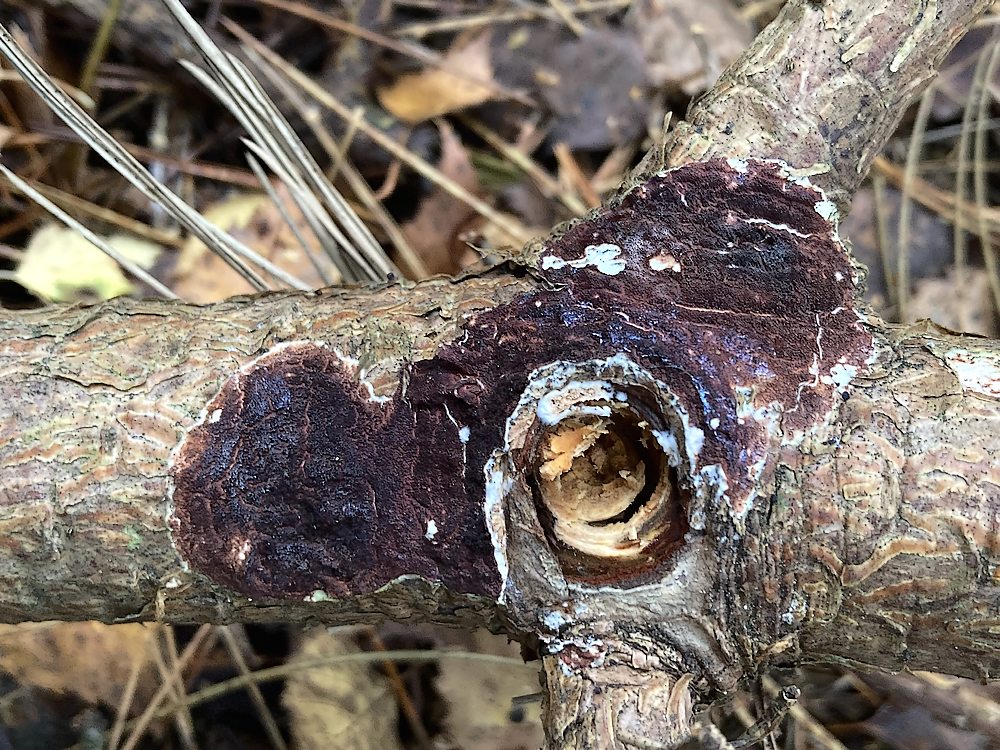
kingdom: Fungi
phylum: Basidiomycota
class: Agaricomycetes
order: Polyporales
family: Irpicaceae
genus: Meruliopsis
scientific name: Meruliopsis taxicola
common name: purpurbrun foldporesvamp
